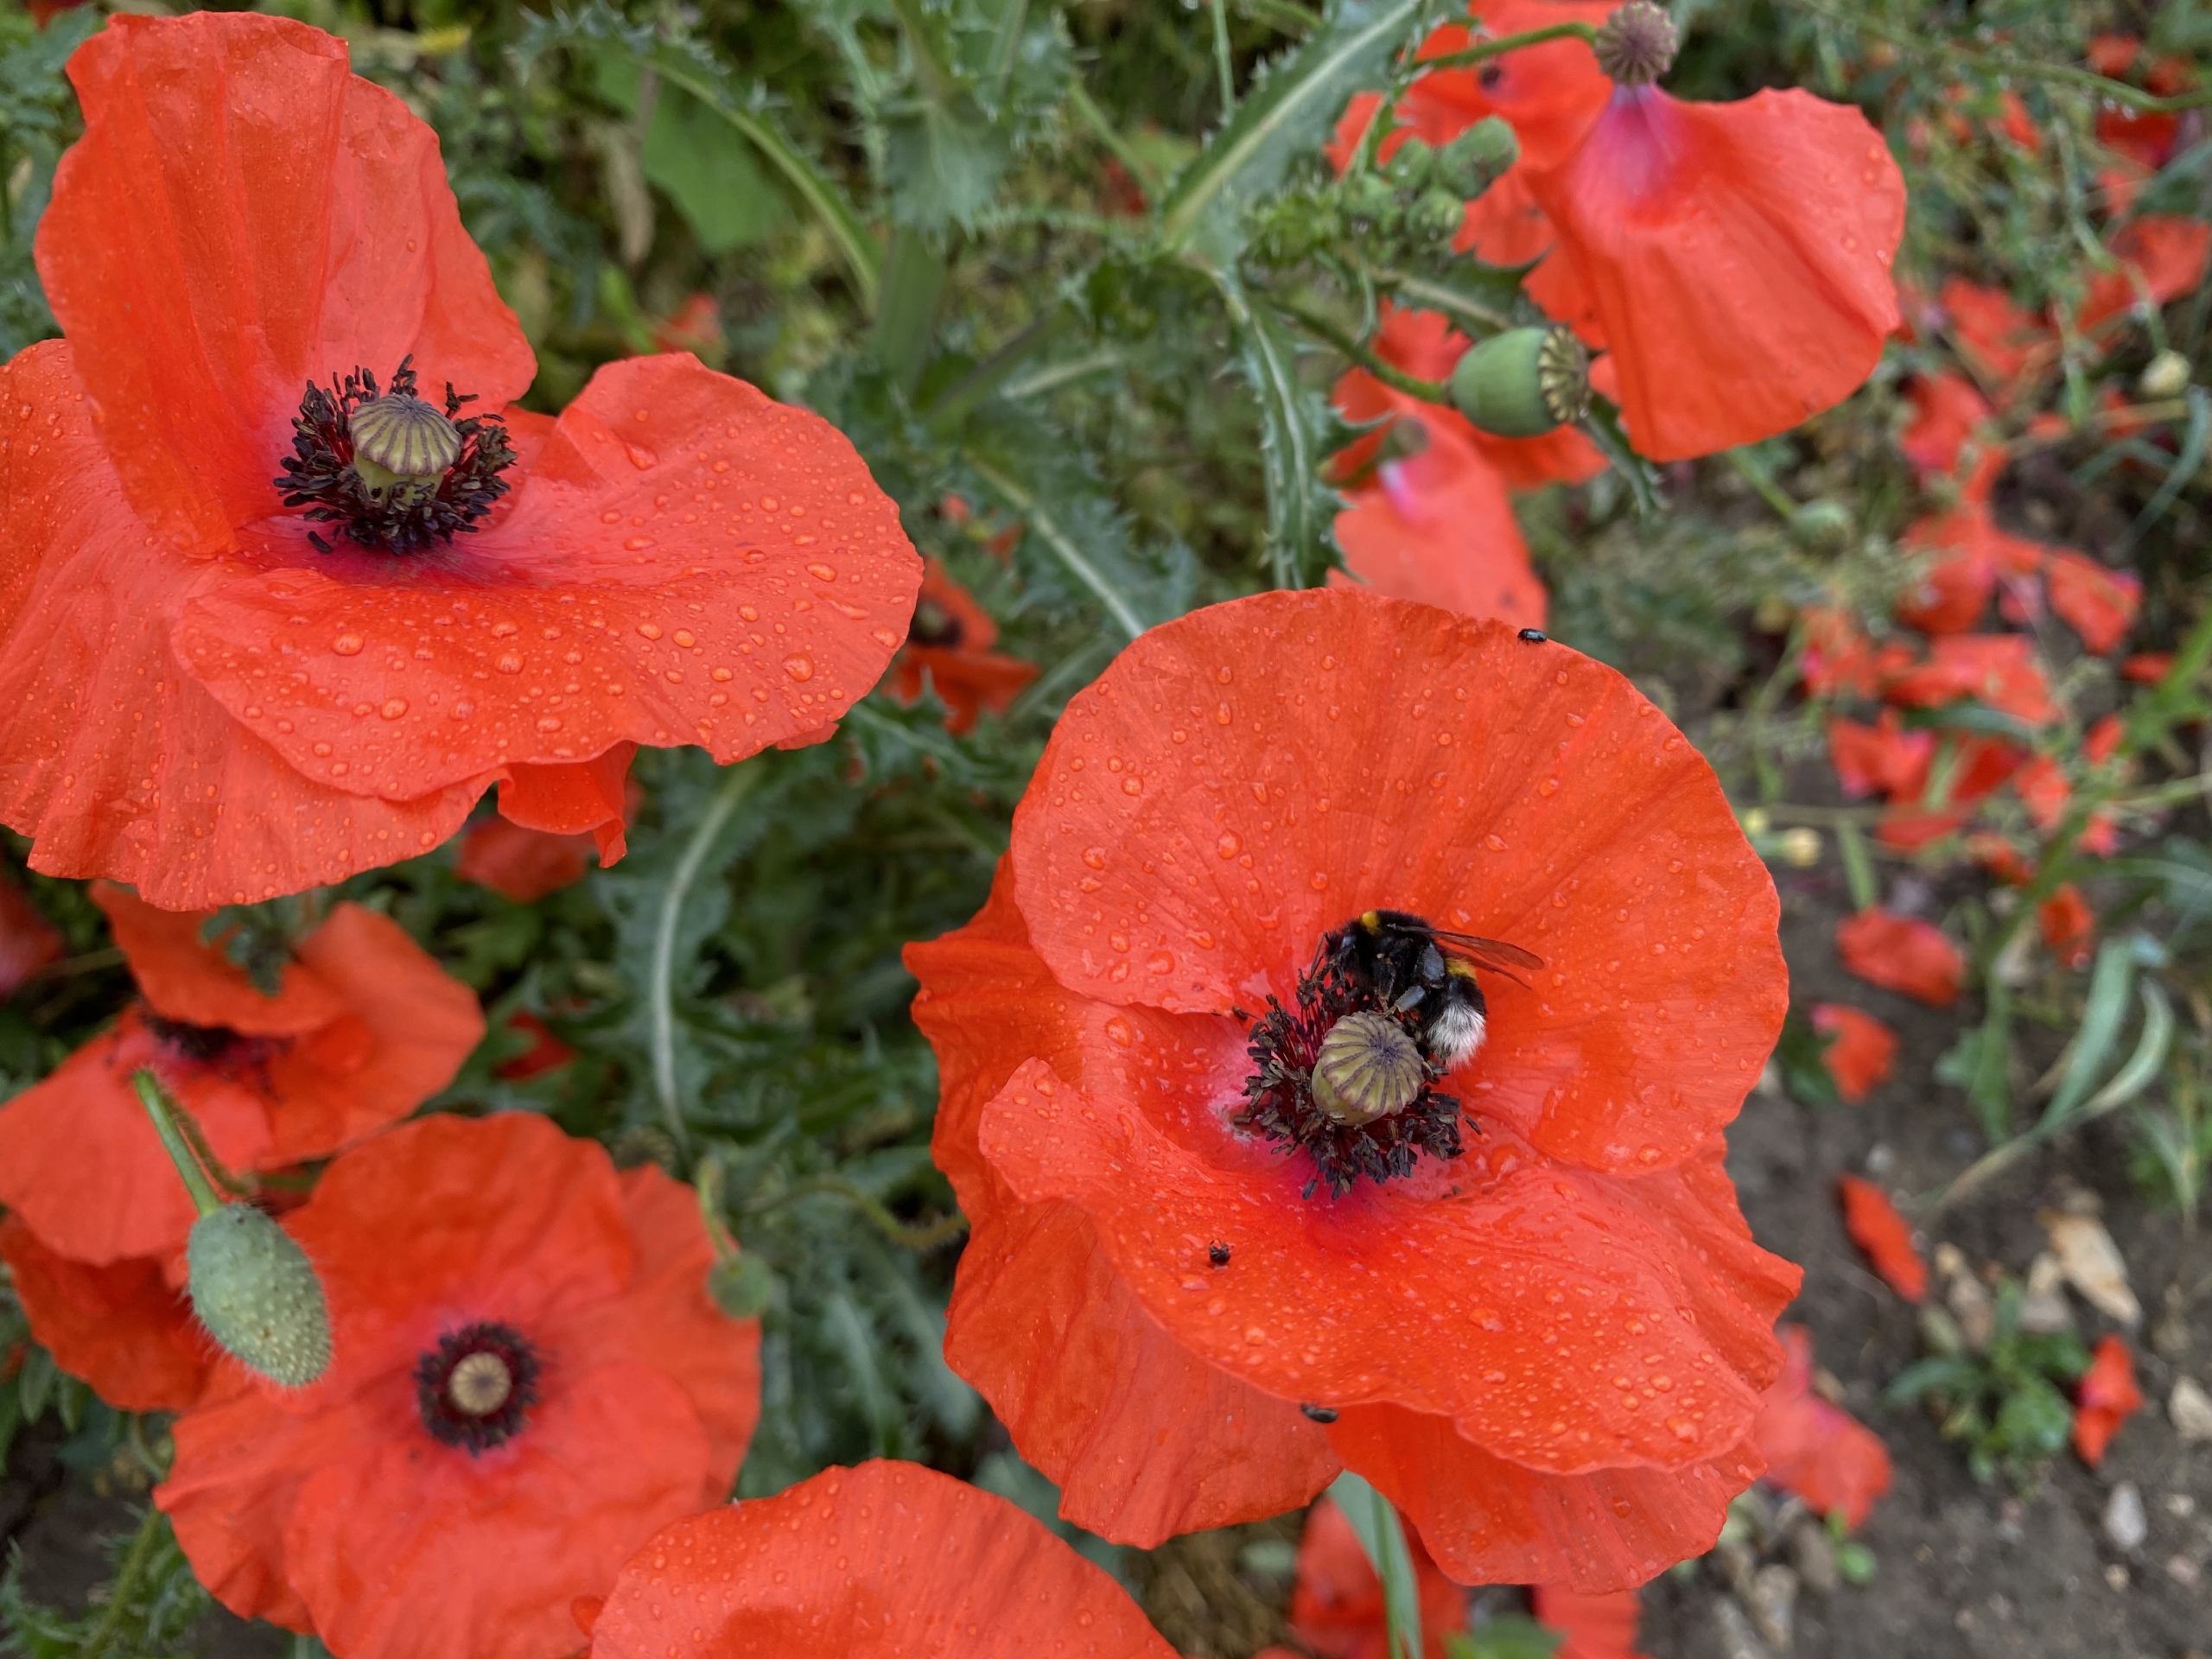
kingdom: Plantae
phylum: Tracheophyta
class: Magnoliopsida
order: Ranunculales
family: Papaveraceae
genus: Papaver
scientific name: Papaver rhoeas
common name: Korn-valmue
